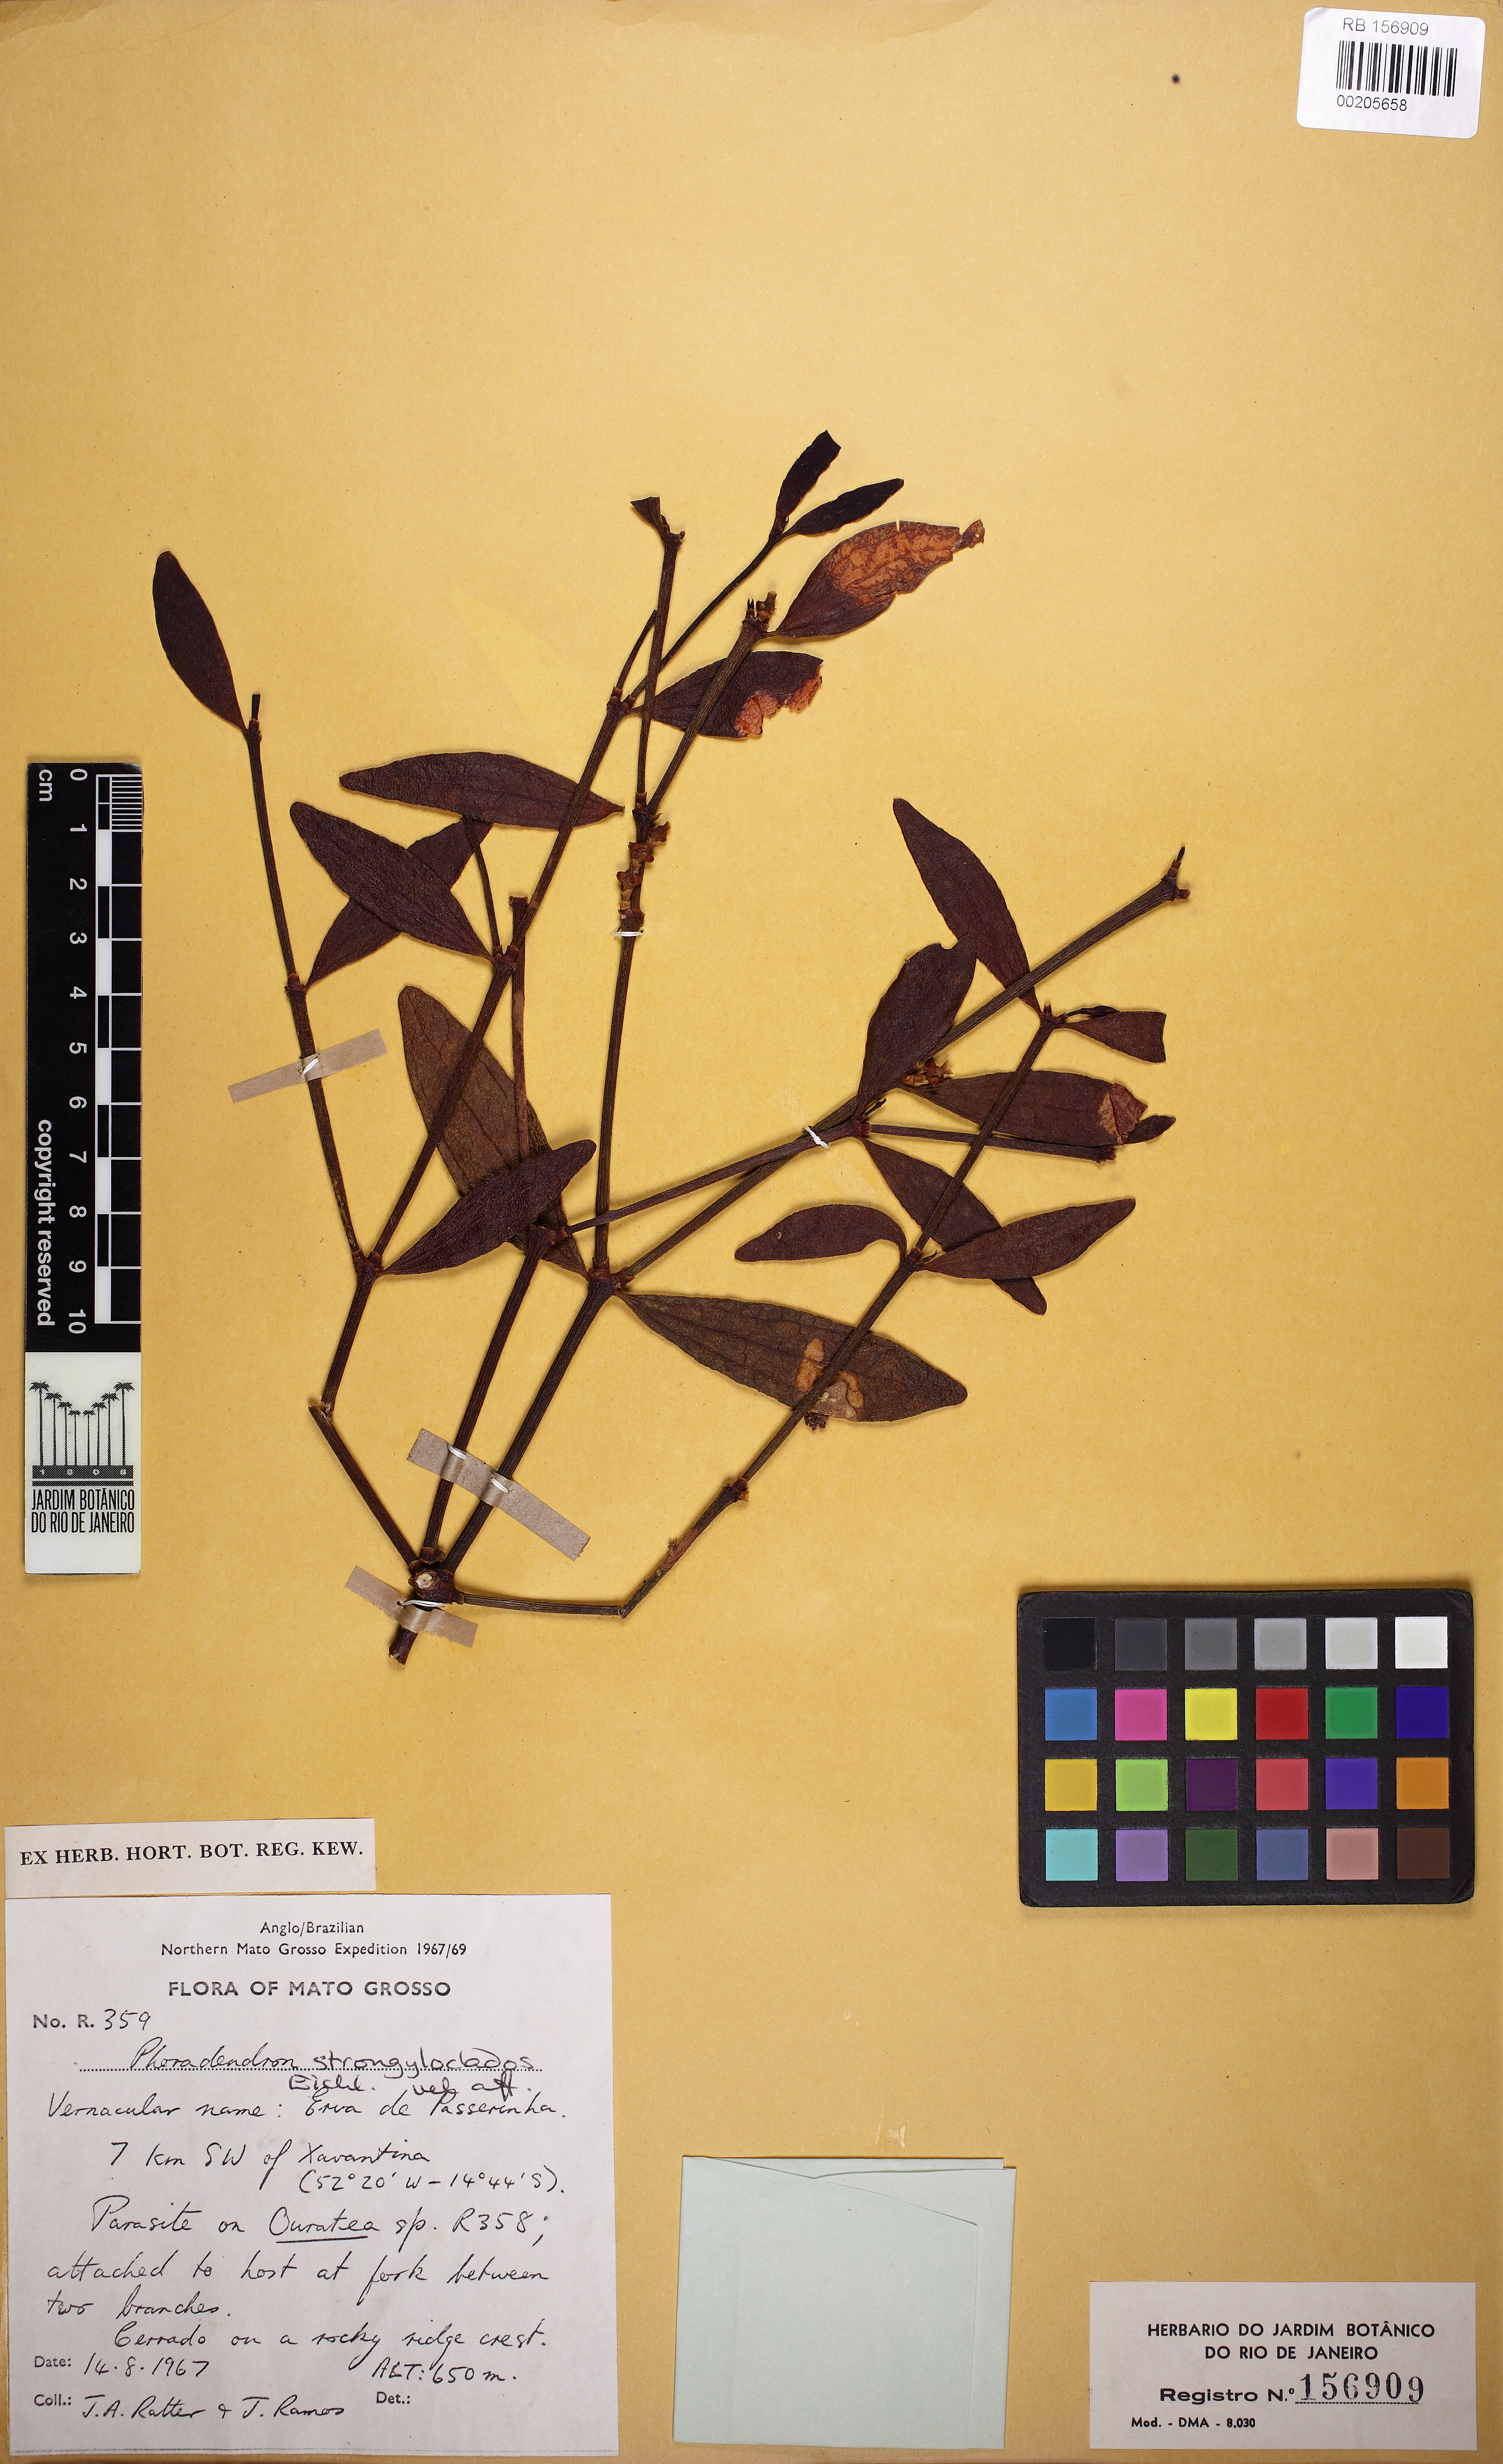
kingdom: Plantae
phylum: Tracheophyta
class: Magnoliopsida
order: Santalales
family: Viscaceae
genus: Phoradendron
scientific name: Phoradendron strongyloclados
